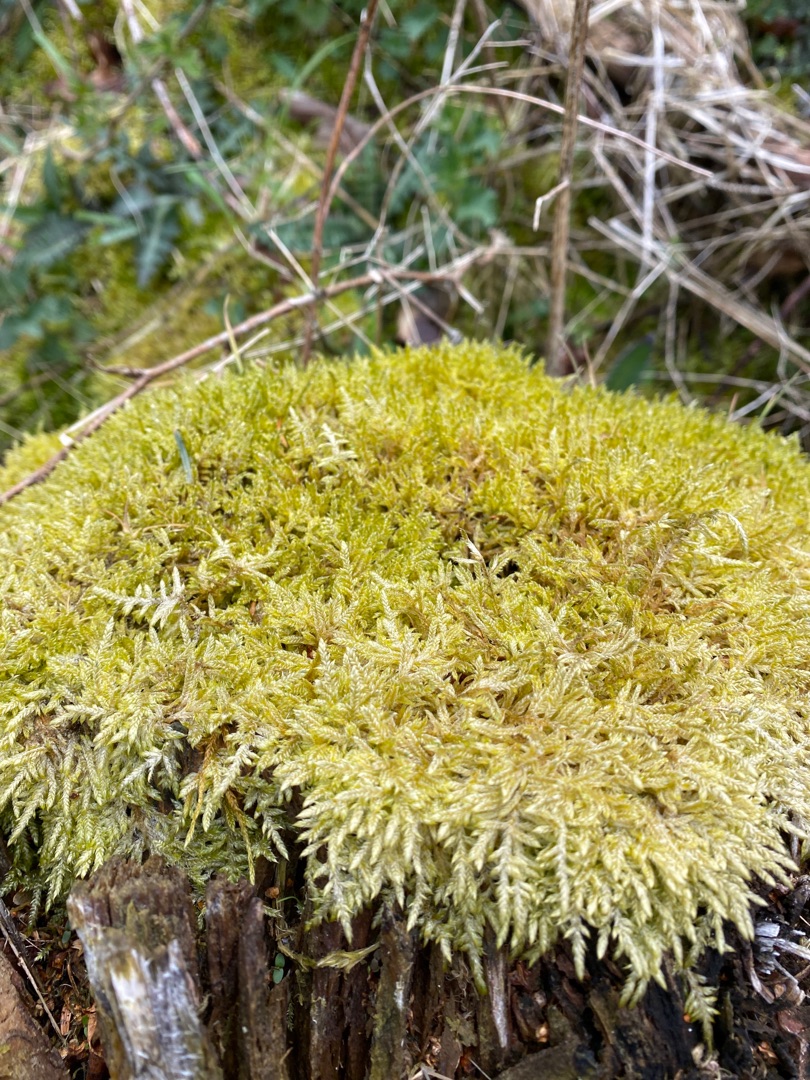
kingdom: Plantae
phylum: Bryophyta
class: Bryopsida
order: Hypnales
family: Hypnaceae
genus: Hypnum
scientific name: Hypnum cupressiforme
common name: Almindelig cypresmos
